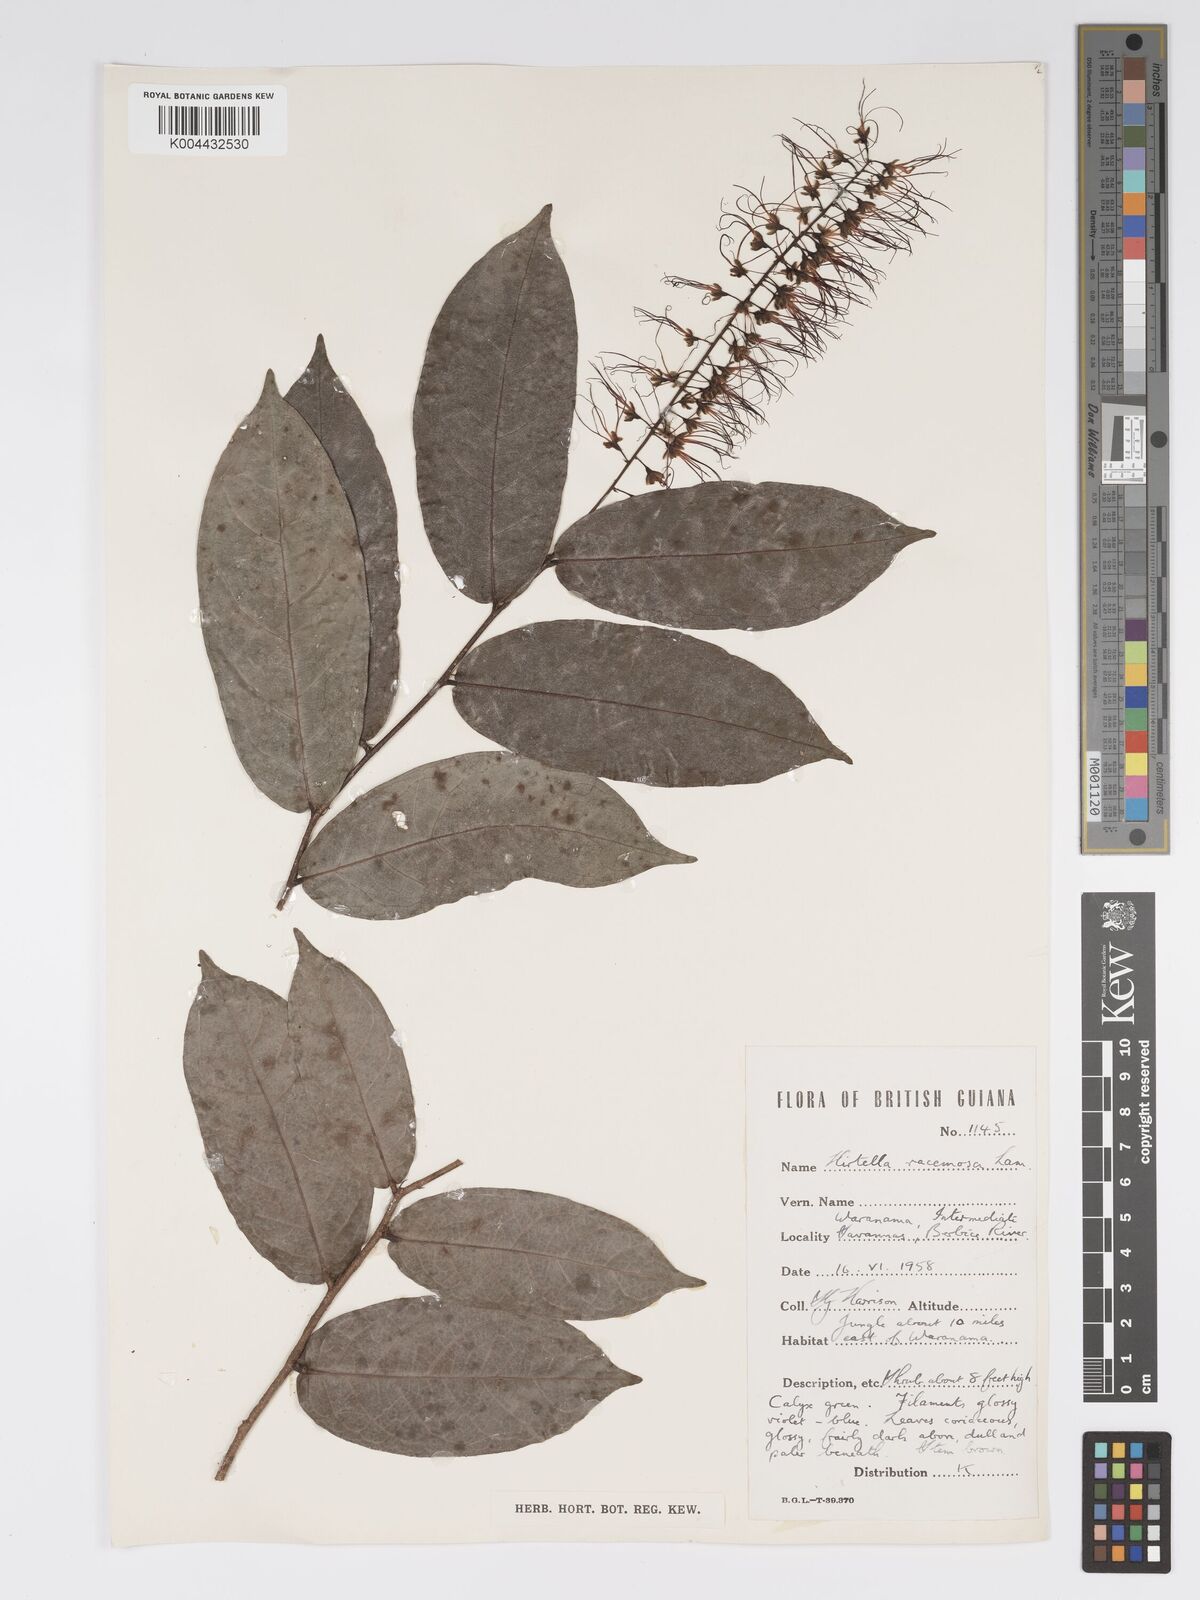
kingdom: Plantae
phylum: Tracheophyta
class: Magnoliopsida
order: Malpighiales
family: Chrysobalanaceae
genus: Hirtella
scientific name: Hirtella
